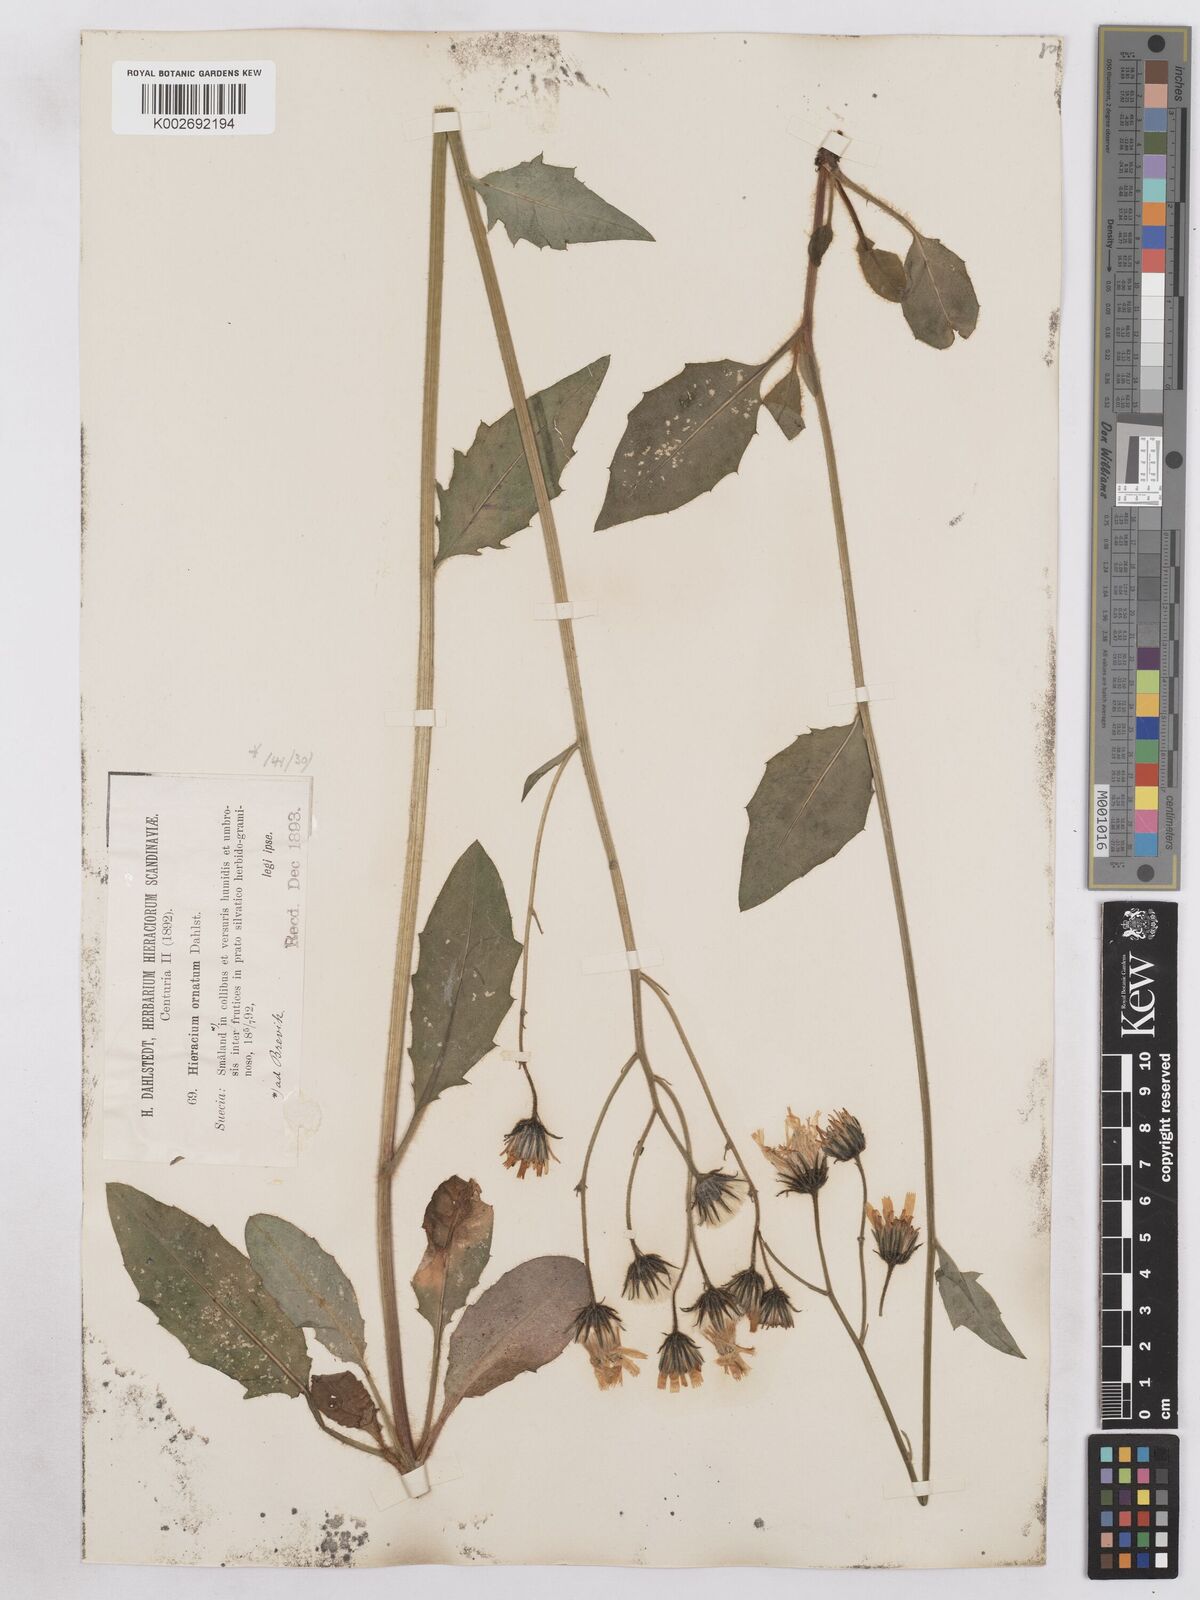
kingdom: Plantae
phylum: Tracheophyta
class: Magnoliopsida
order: Asterales
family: Asteraceae
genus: Hieracium
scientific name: Hieracium diaphanoides
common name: Fine-bracted hawkweed
